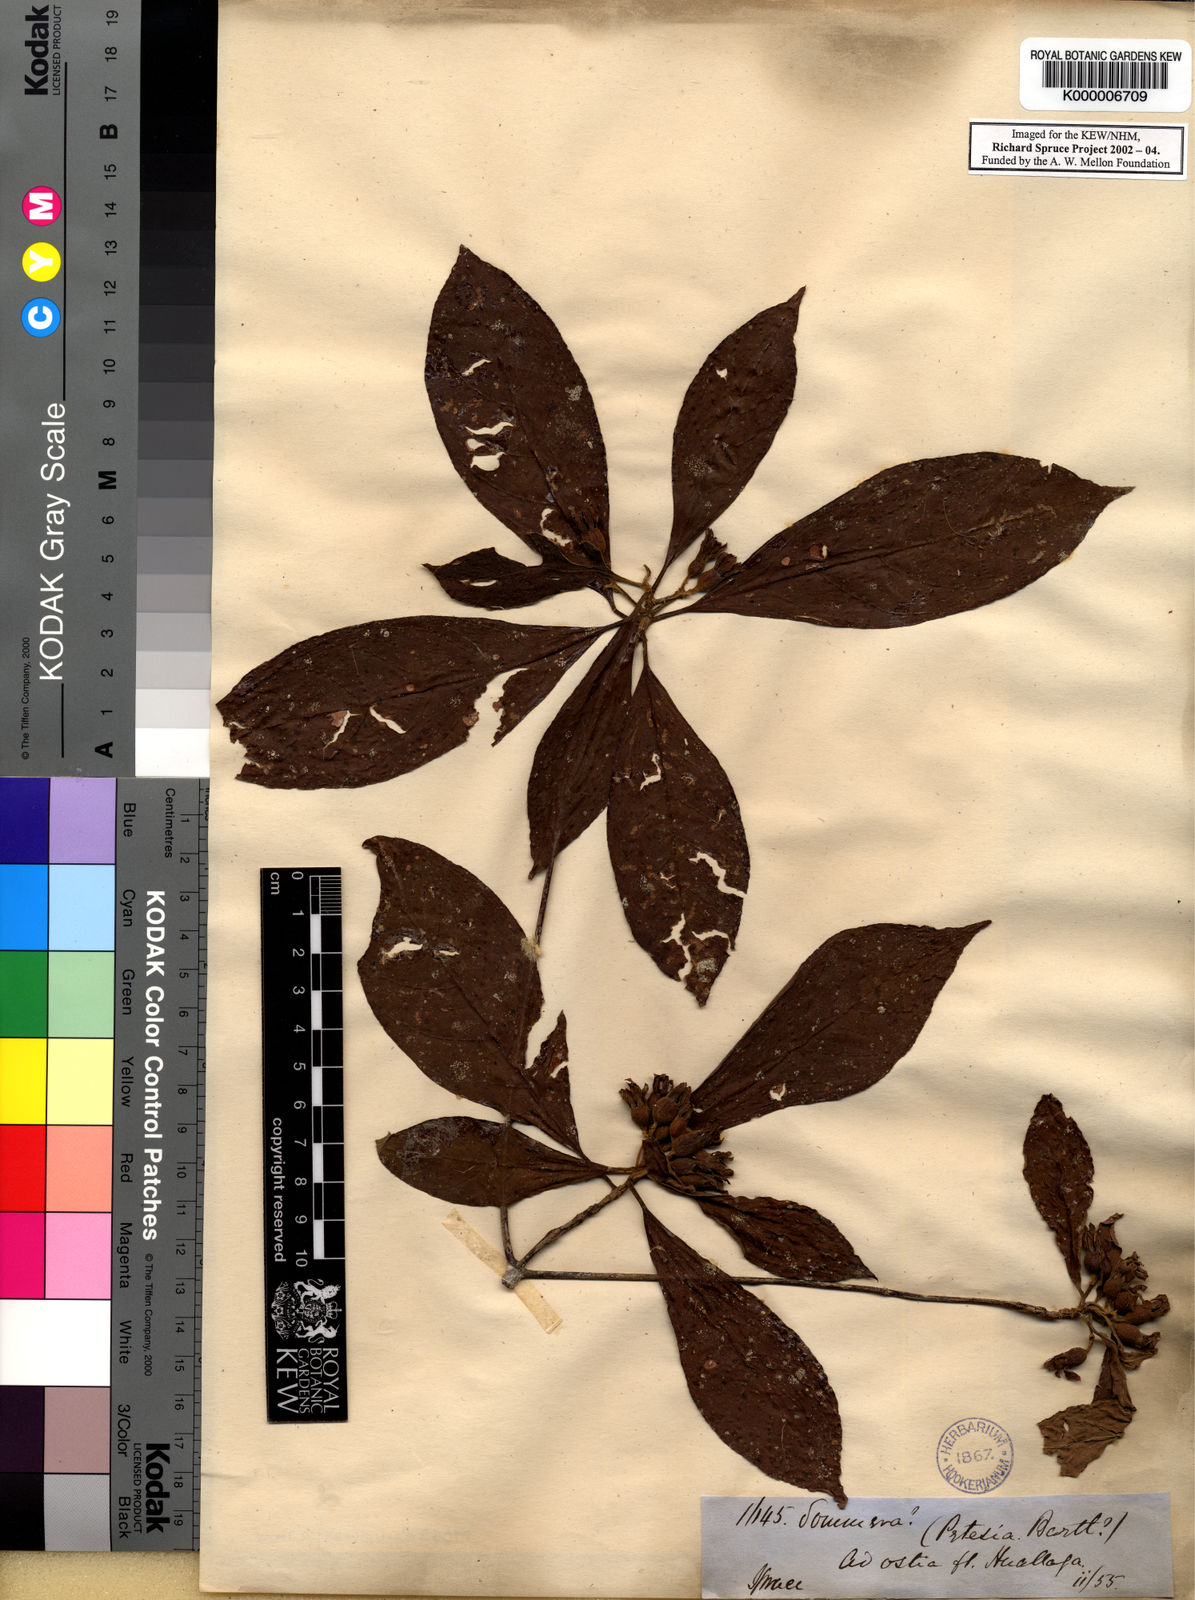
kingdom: Plantae
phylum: Tracheophyta
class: Magnoliopsida
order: Gentianales
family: Rubiaceae
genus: Sommera
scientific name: Sommera sabiceoides
